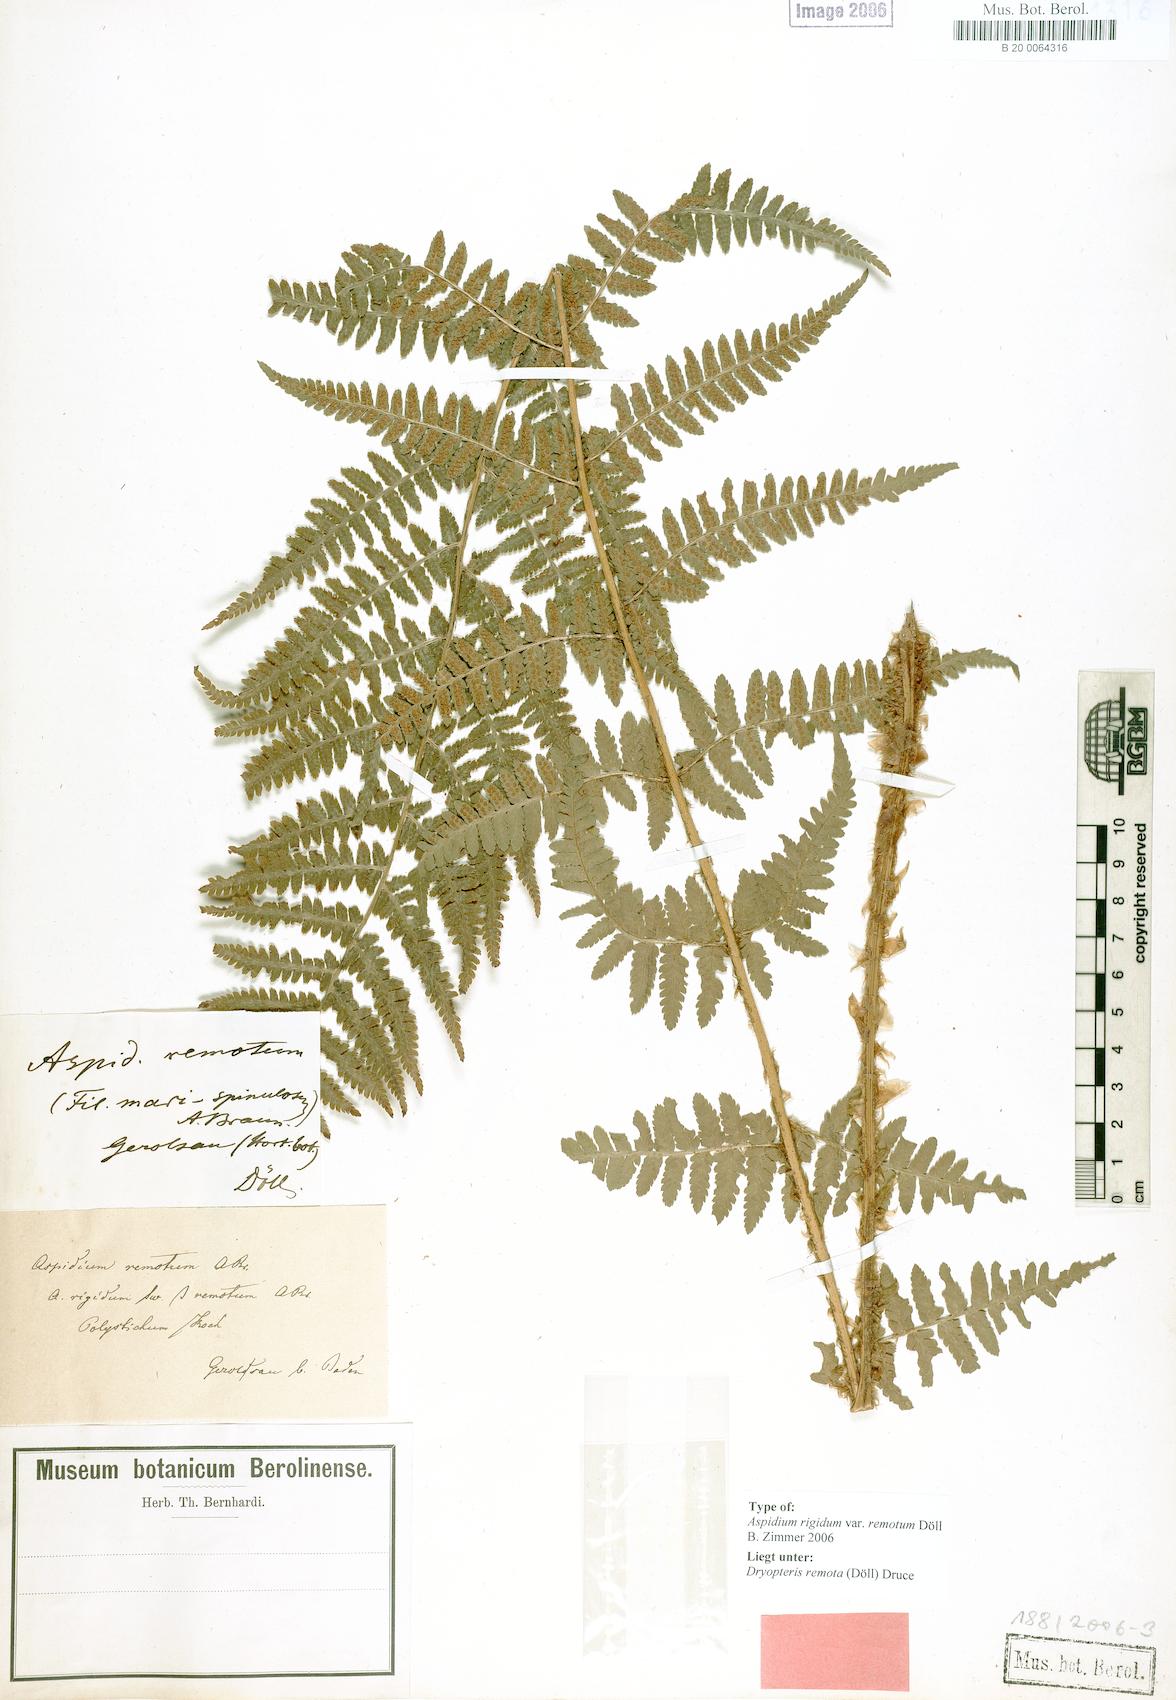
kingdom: Plantae
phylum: Tracheophyta
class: Polypodiopsida
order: Polypodiales
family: Dryopteridaceae
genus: Dryopteris
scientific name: Dryopteris remota
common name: Scaly buckler-fern
